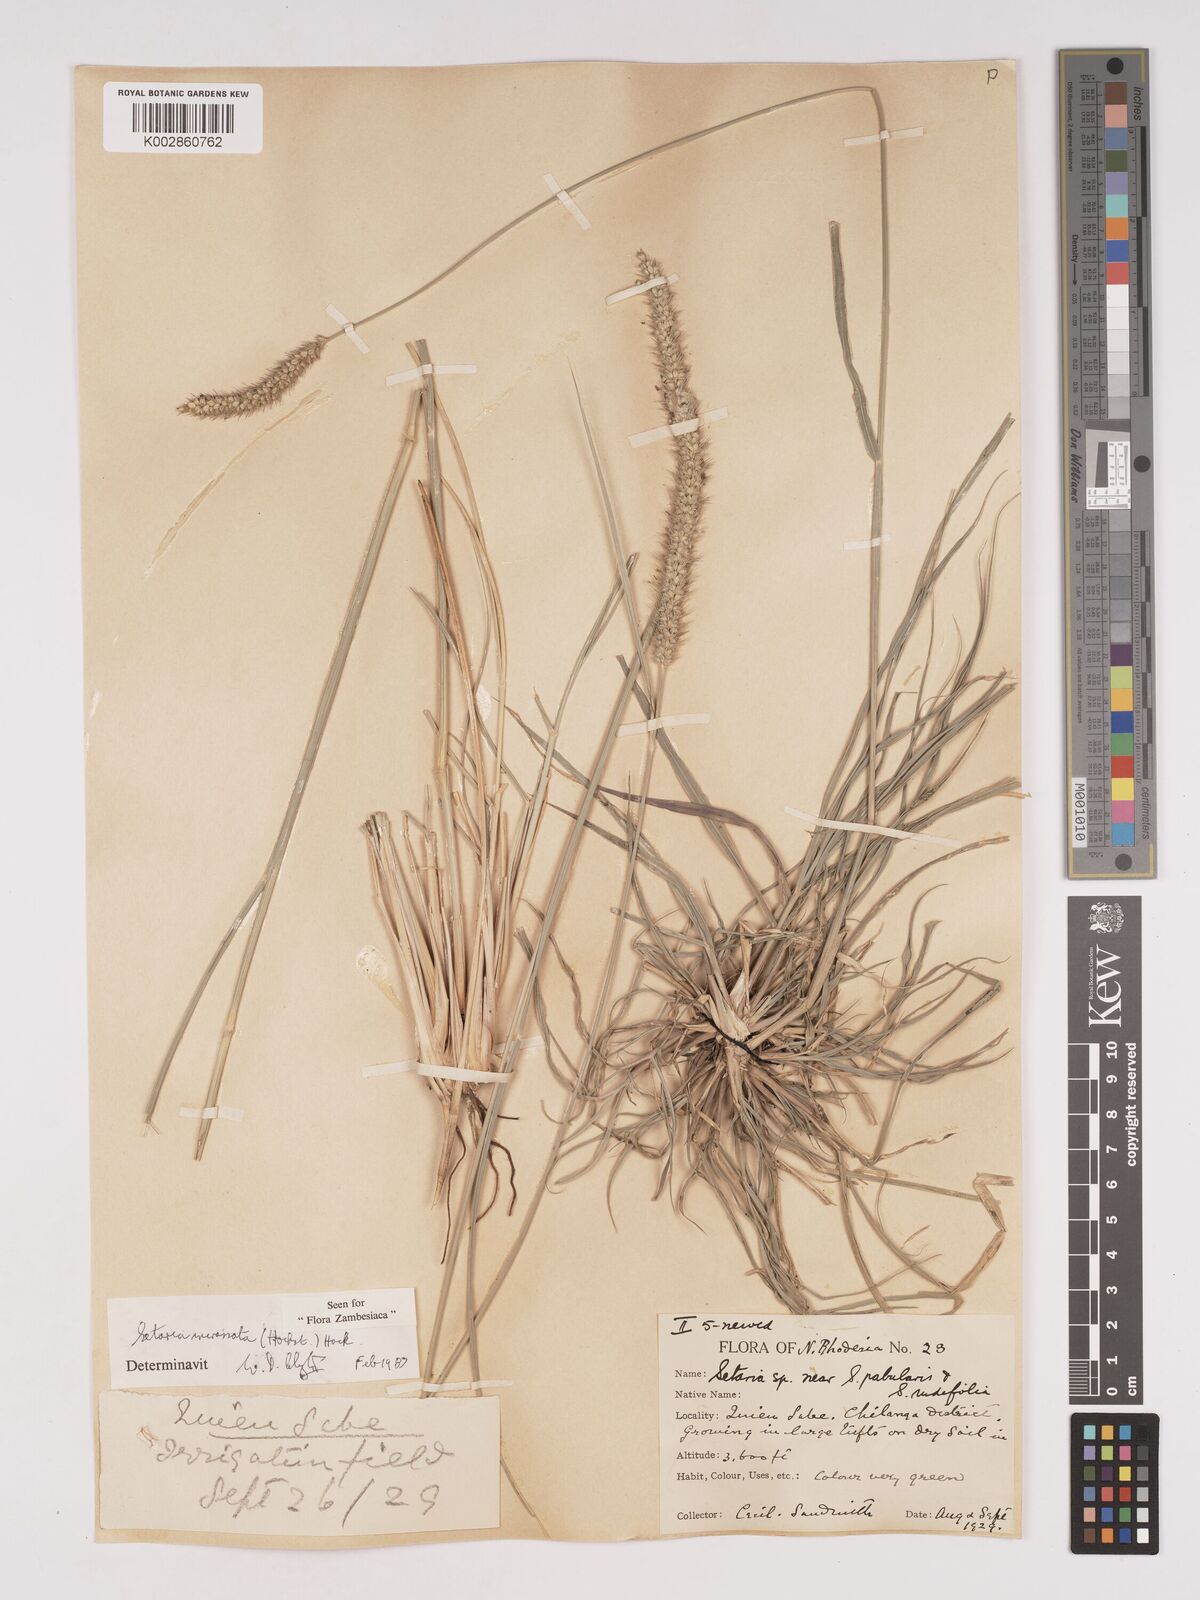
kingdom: Plantae
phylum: Tracheophyta
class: Liliopsida
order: Poales
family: Poaceae
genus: Setaria
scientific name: Setaria incrassata
